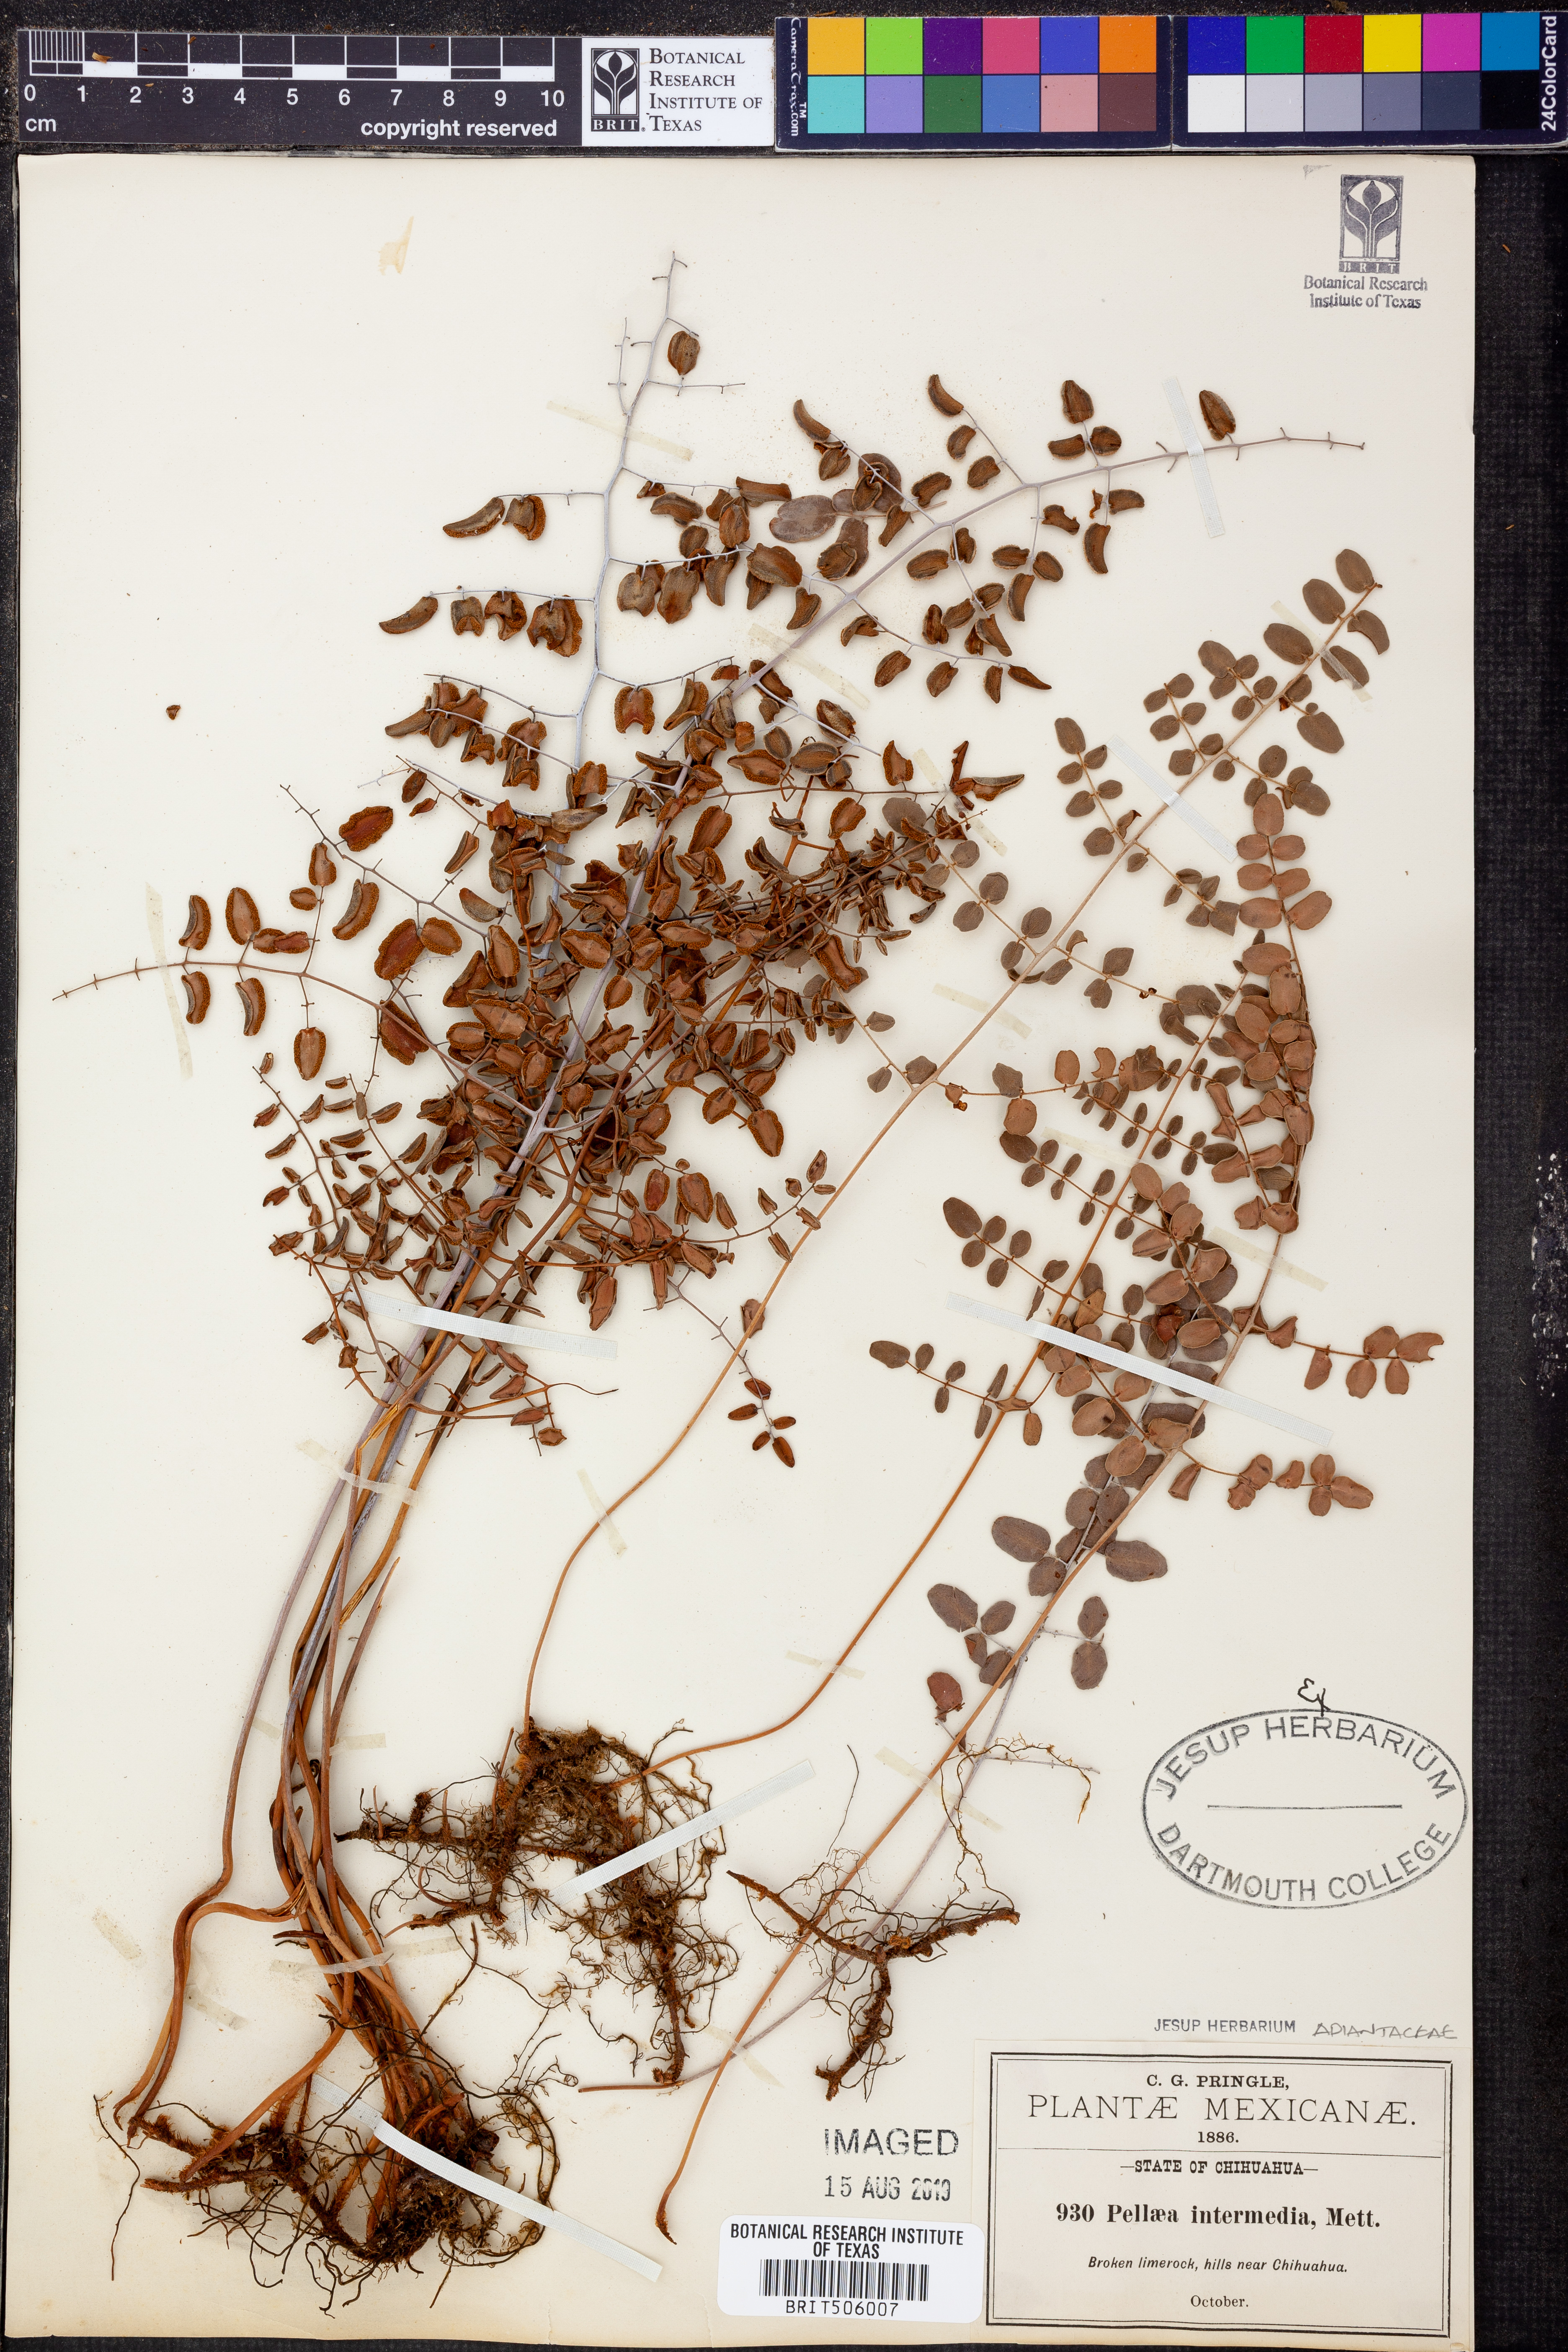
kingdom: Plantae
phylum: Tracheophyta
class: Polypodiopsida
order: Polypodiales
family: Pteridaceae
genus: Pellaea
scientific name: Pellaea intermedia
